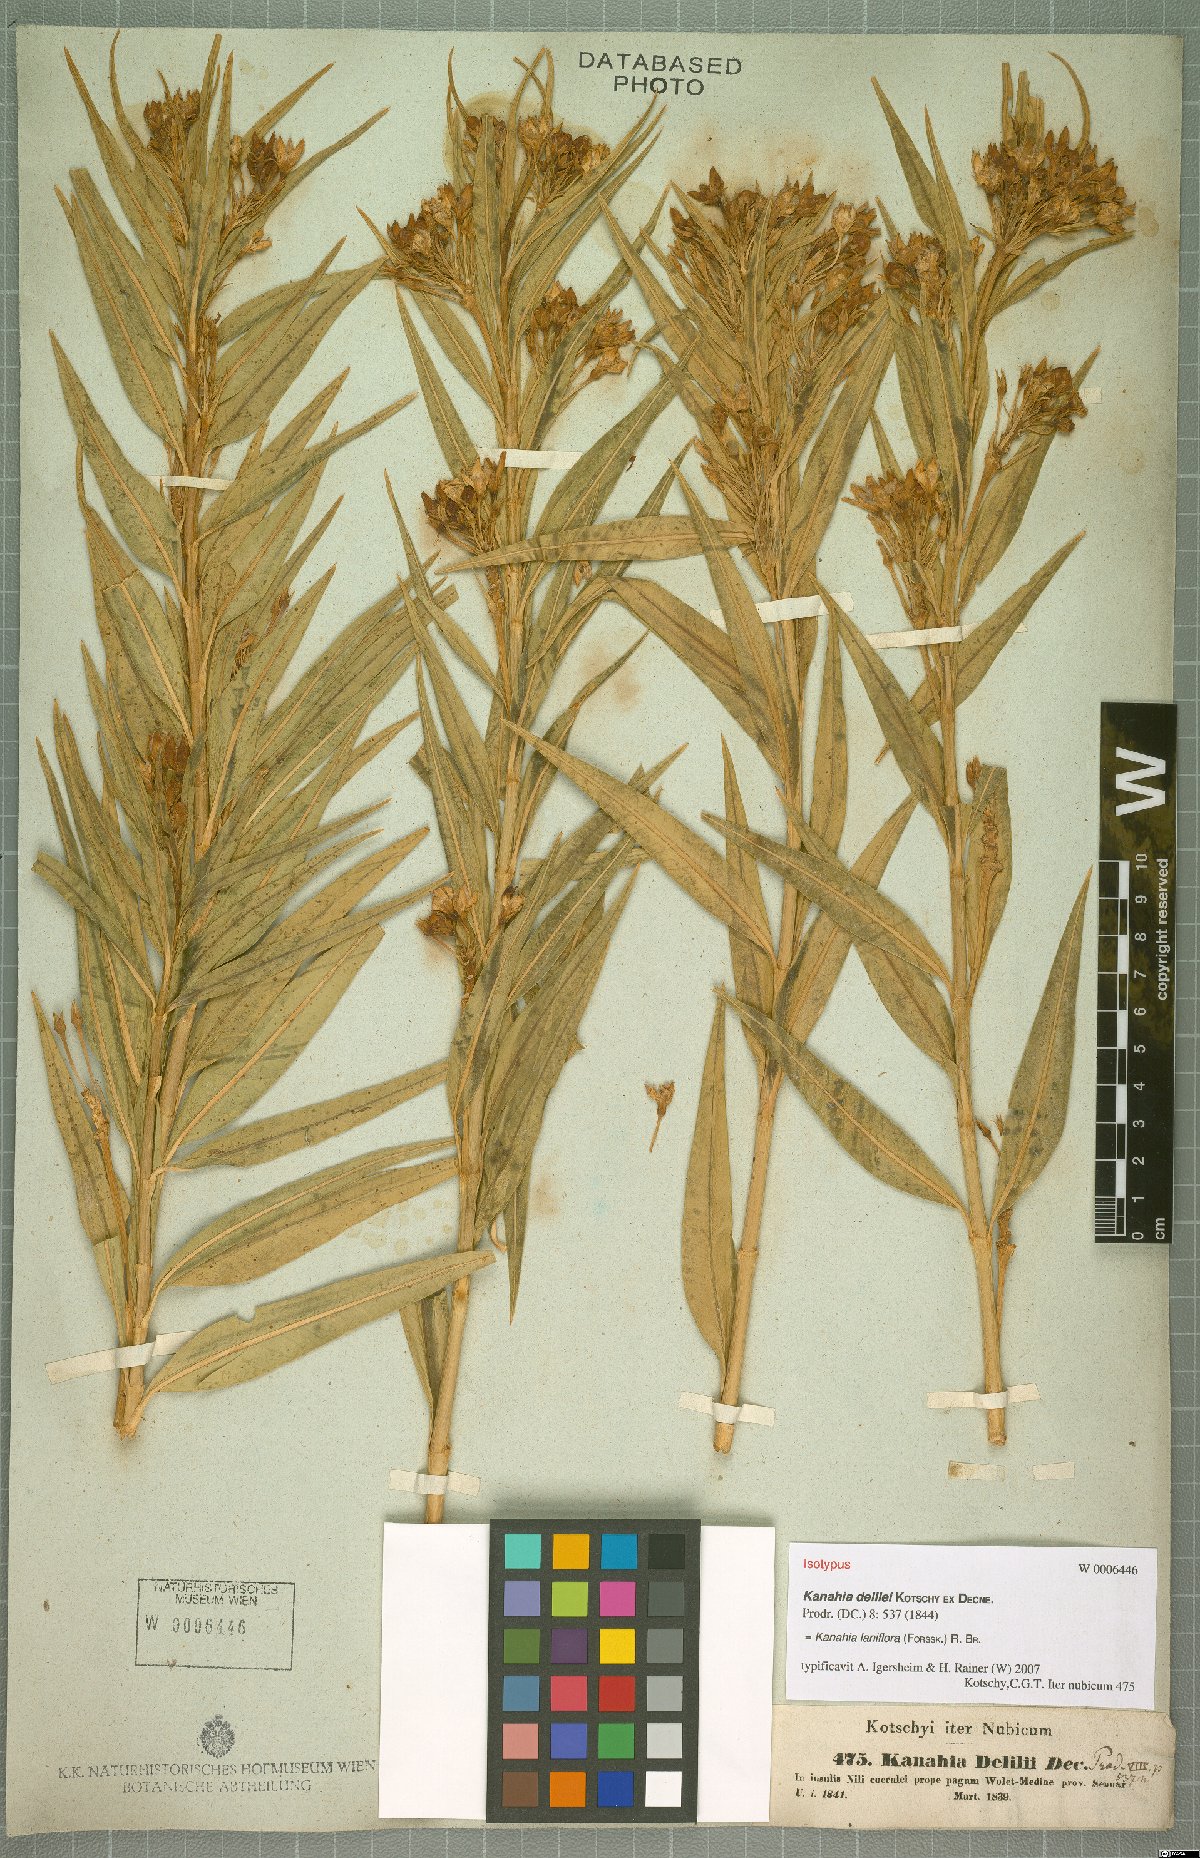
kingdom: Plantae
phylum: Tracheophyta
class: Magnoliopsida
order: Gentianales
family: Apocynaceae
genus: Kanahia
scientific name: Kanahia laniflora
